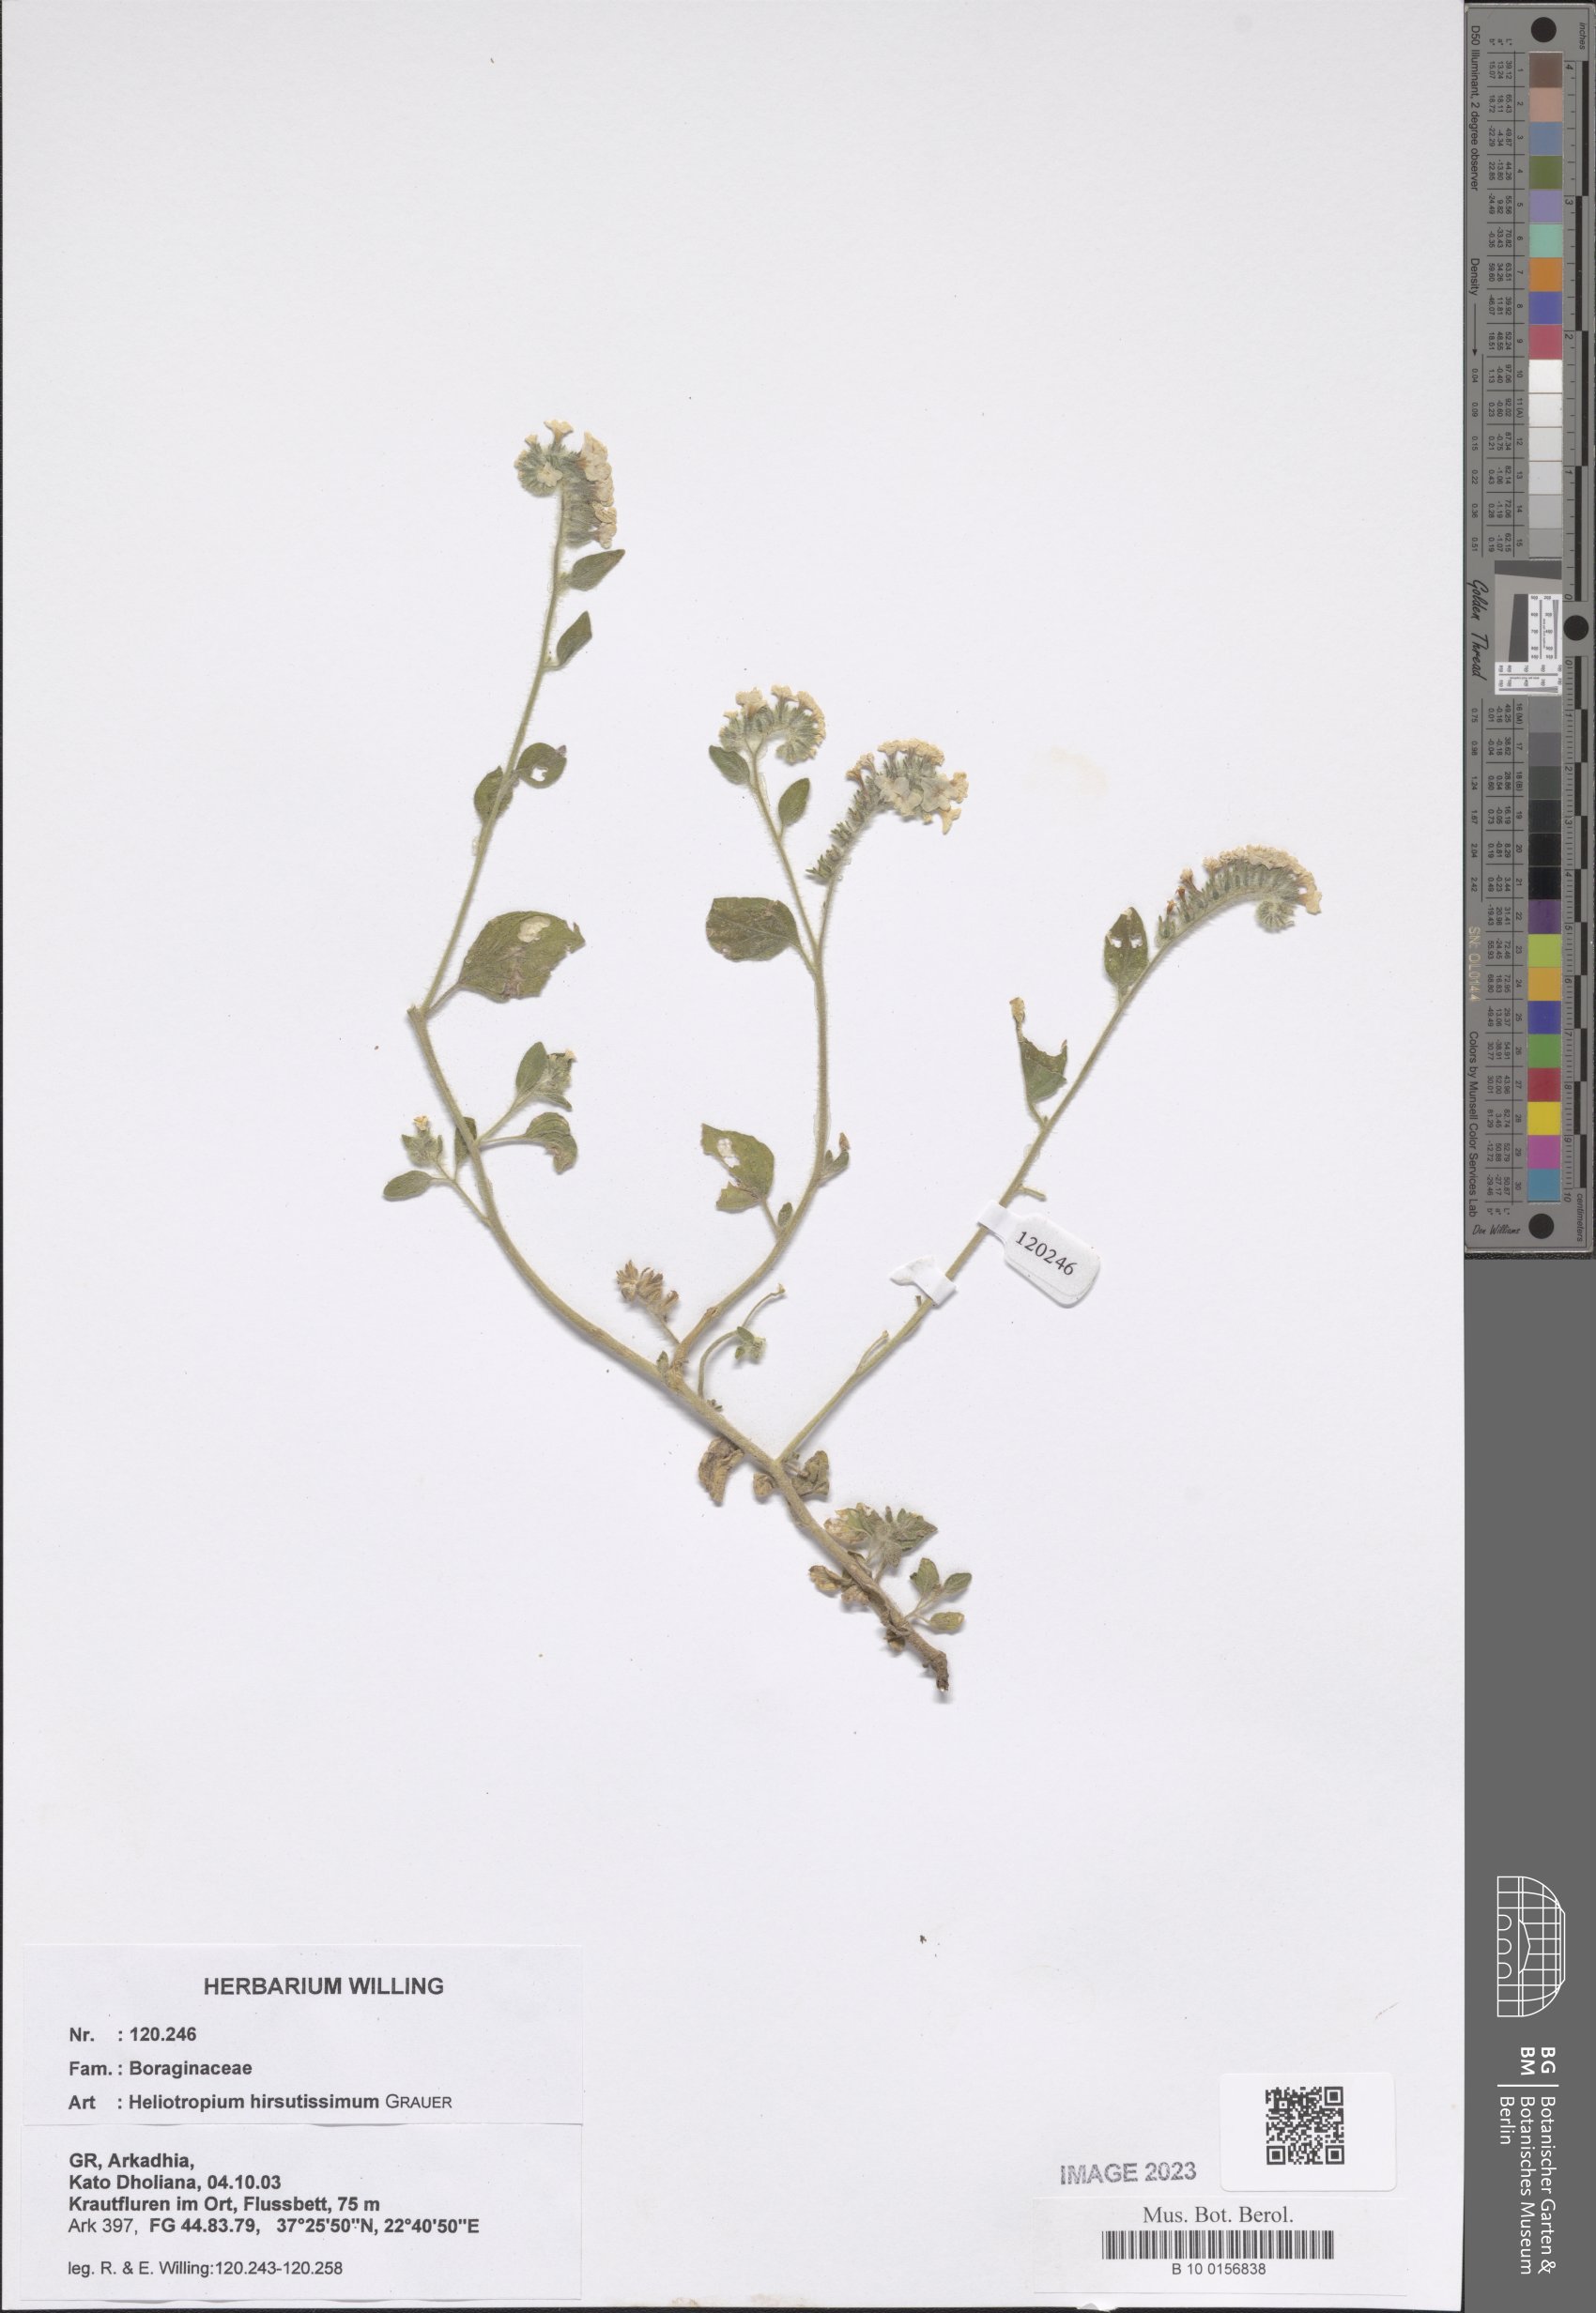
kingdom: Plantae
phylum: Tracheophyta
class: Magnoliopsida
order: Boraginales
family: Heliotropiaceae
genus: Heliotropium
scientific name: Heliotropium hirsutissimum
